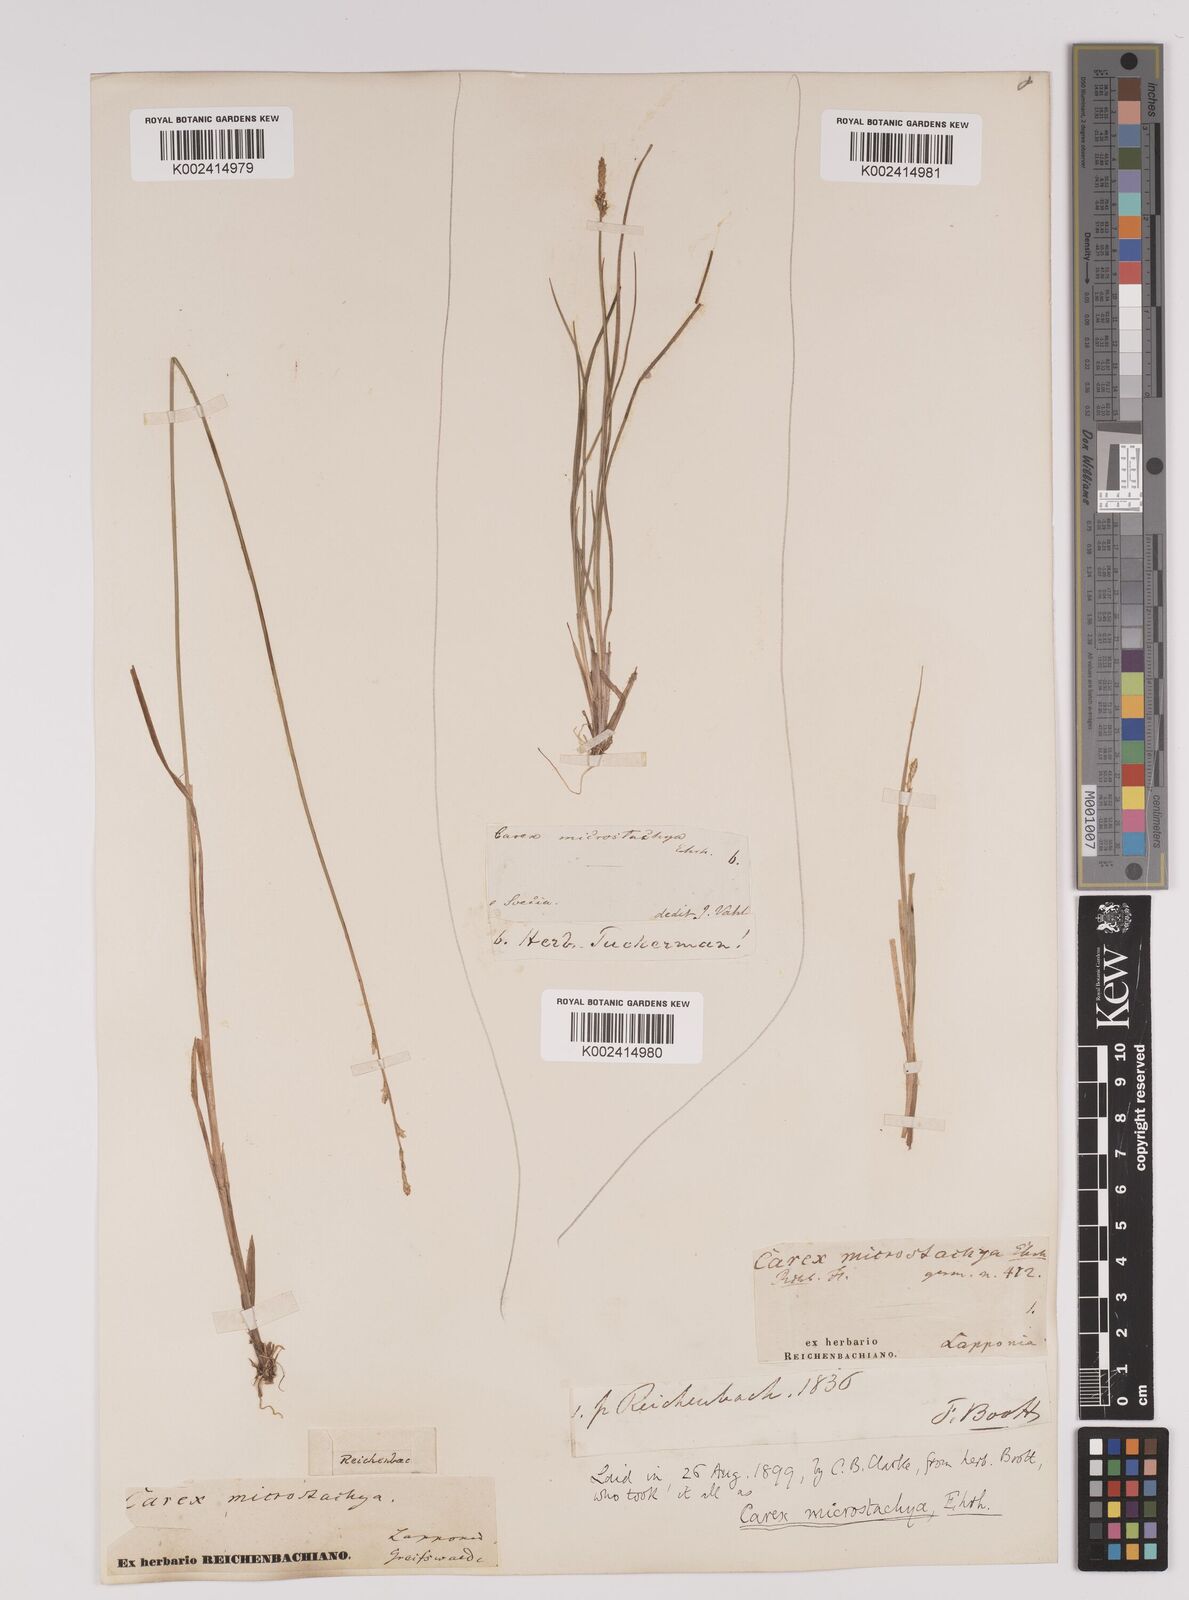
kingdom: Plantae
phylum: Tracheophyta
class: Liliopsida
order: Poales
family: Cyperaceae
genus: Carex
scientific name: Carex dioica
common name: Dioecious sedge
